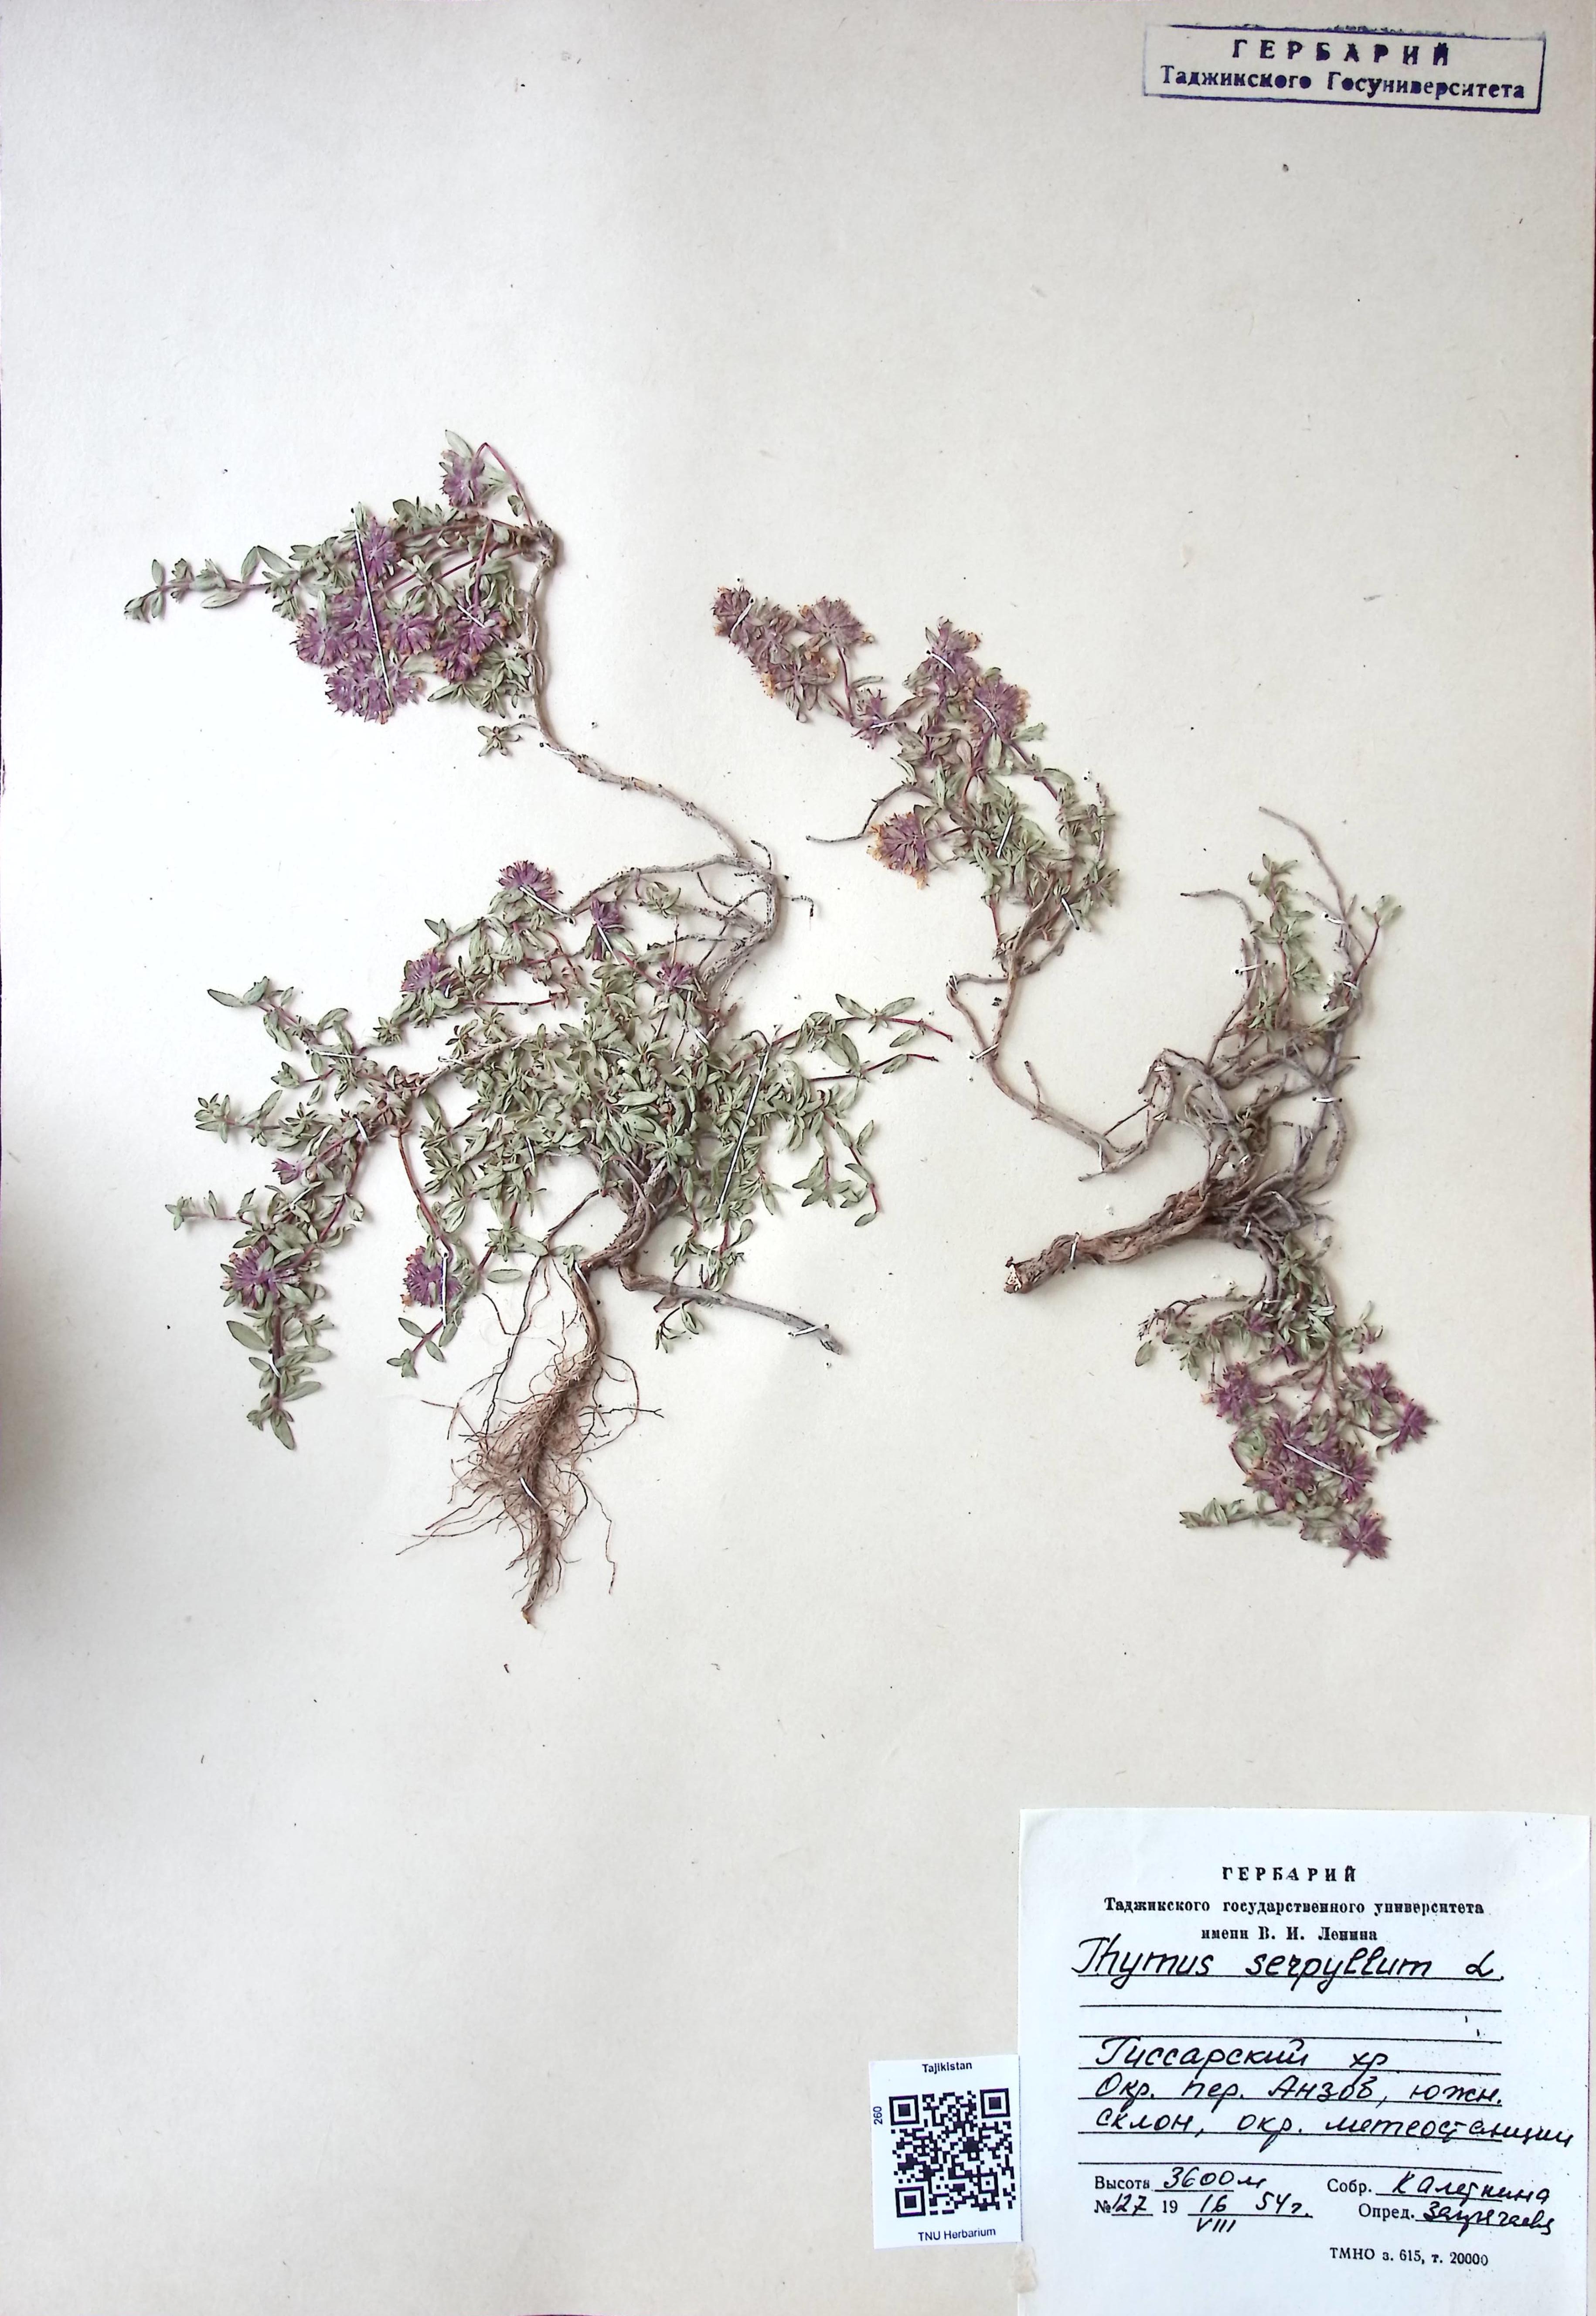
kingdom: Plantae
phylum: Tracheophyta
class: Magnoliopsida
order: Lamiales
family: Lamiaceae
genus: Thymus
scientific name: Thymus serpyllum
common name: Breckland thyme
